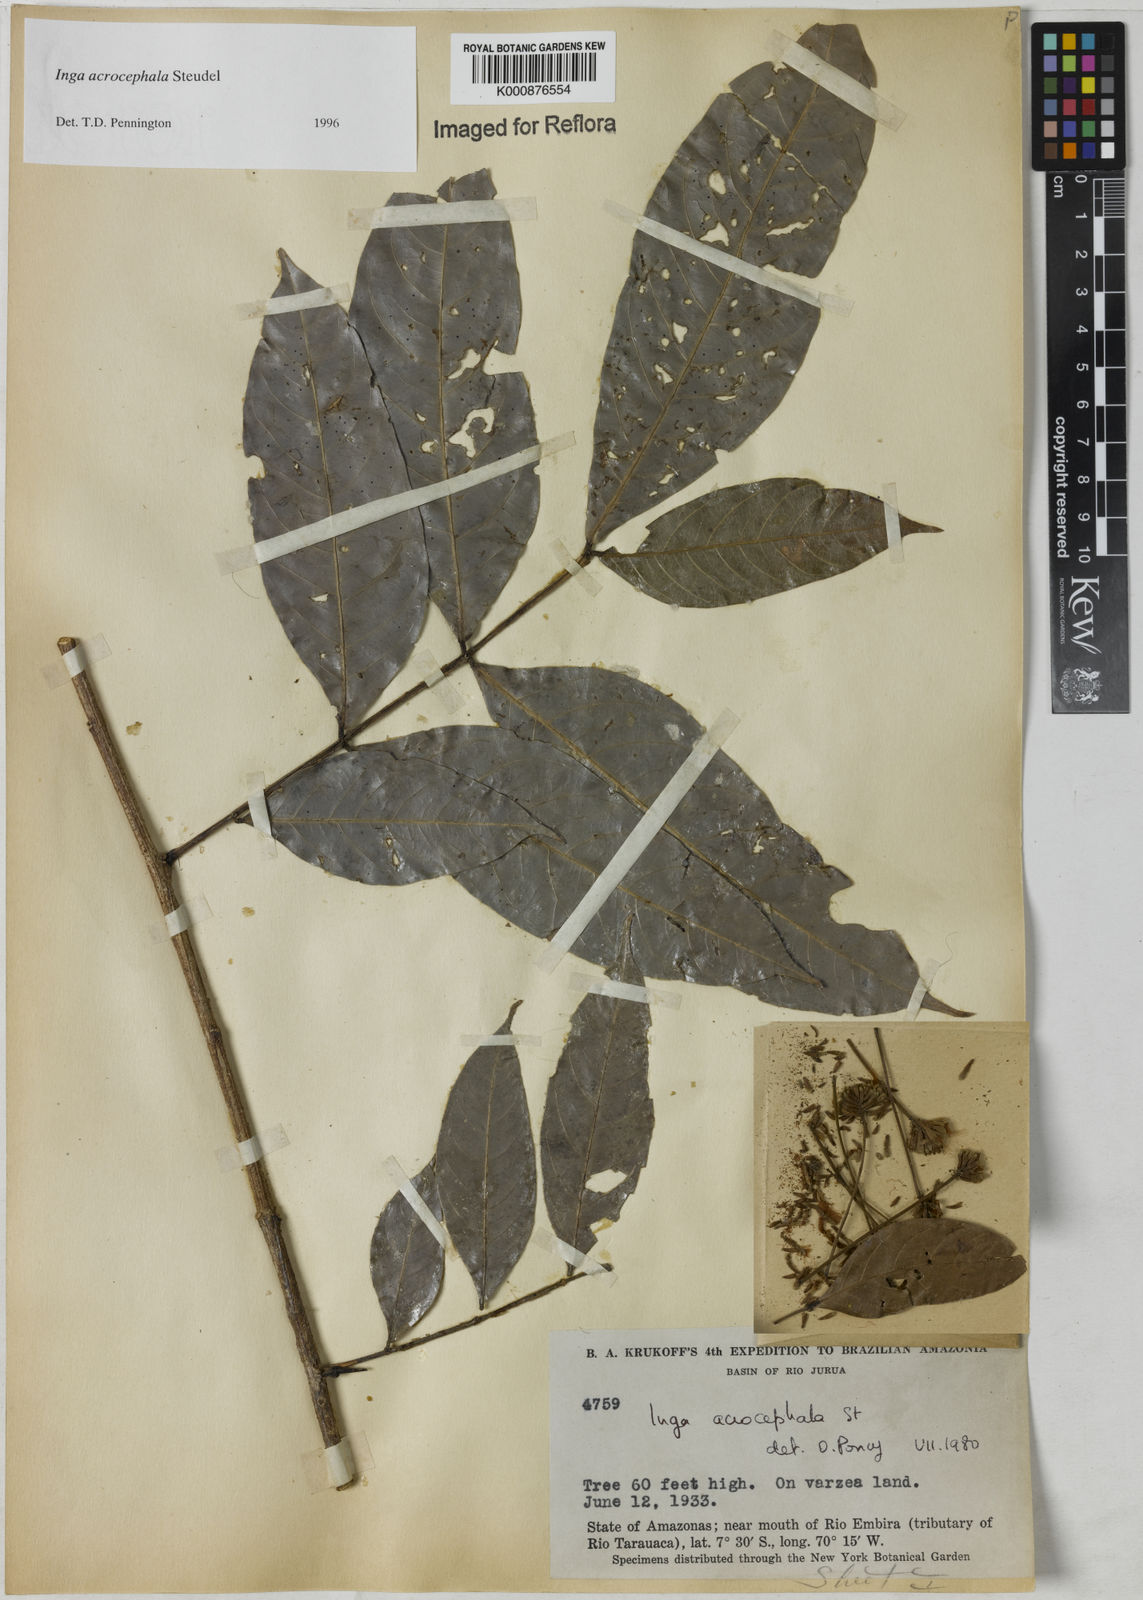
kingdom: Plantae
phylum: Tracheophyta
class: Magnoliopsida
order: Fabales
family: Fabaceae
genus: Inga
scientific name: Inga acrocephala
